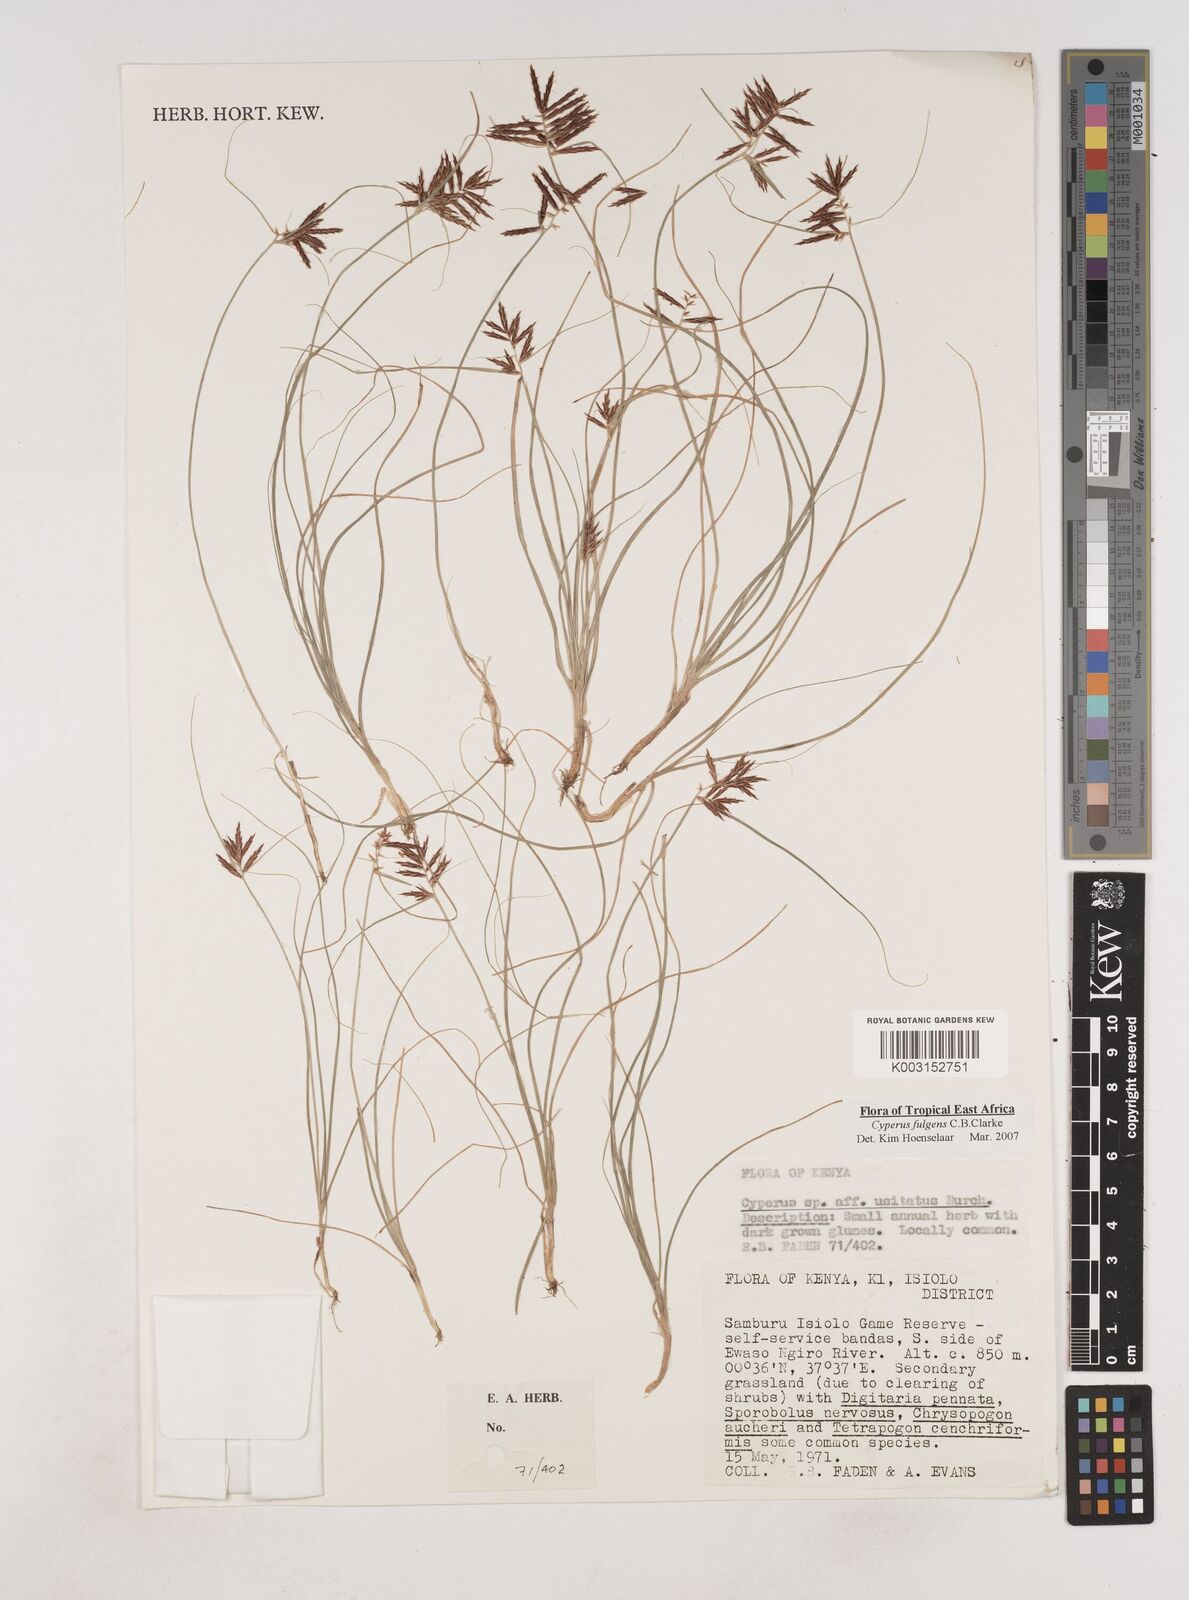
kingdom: Plantae
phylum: Tracheophyta
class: Liliopsida
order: Poales
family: Cyperaceae
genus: Cyperus
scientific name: Cyperus callistus
